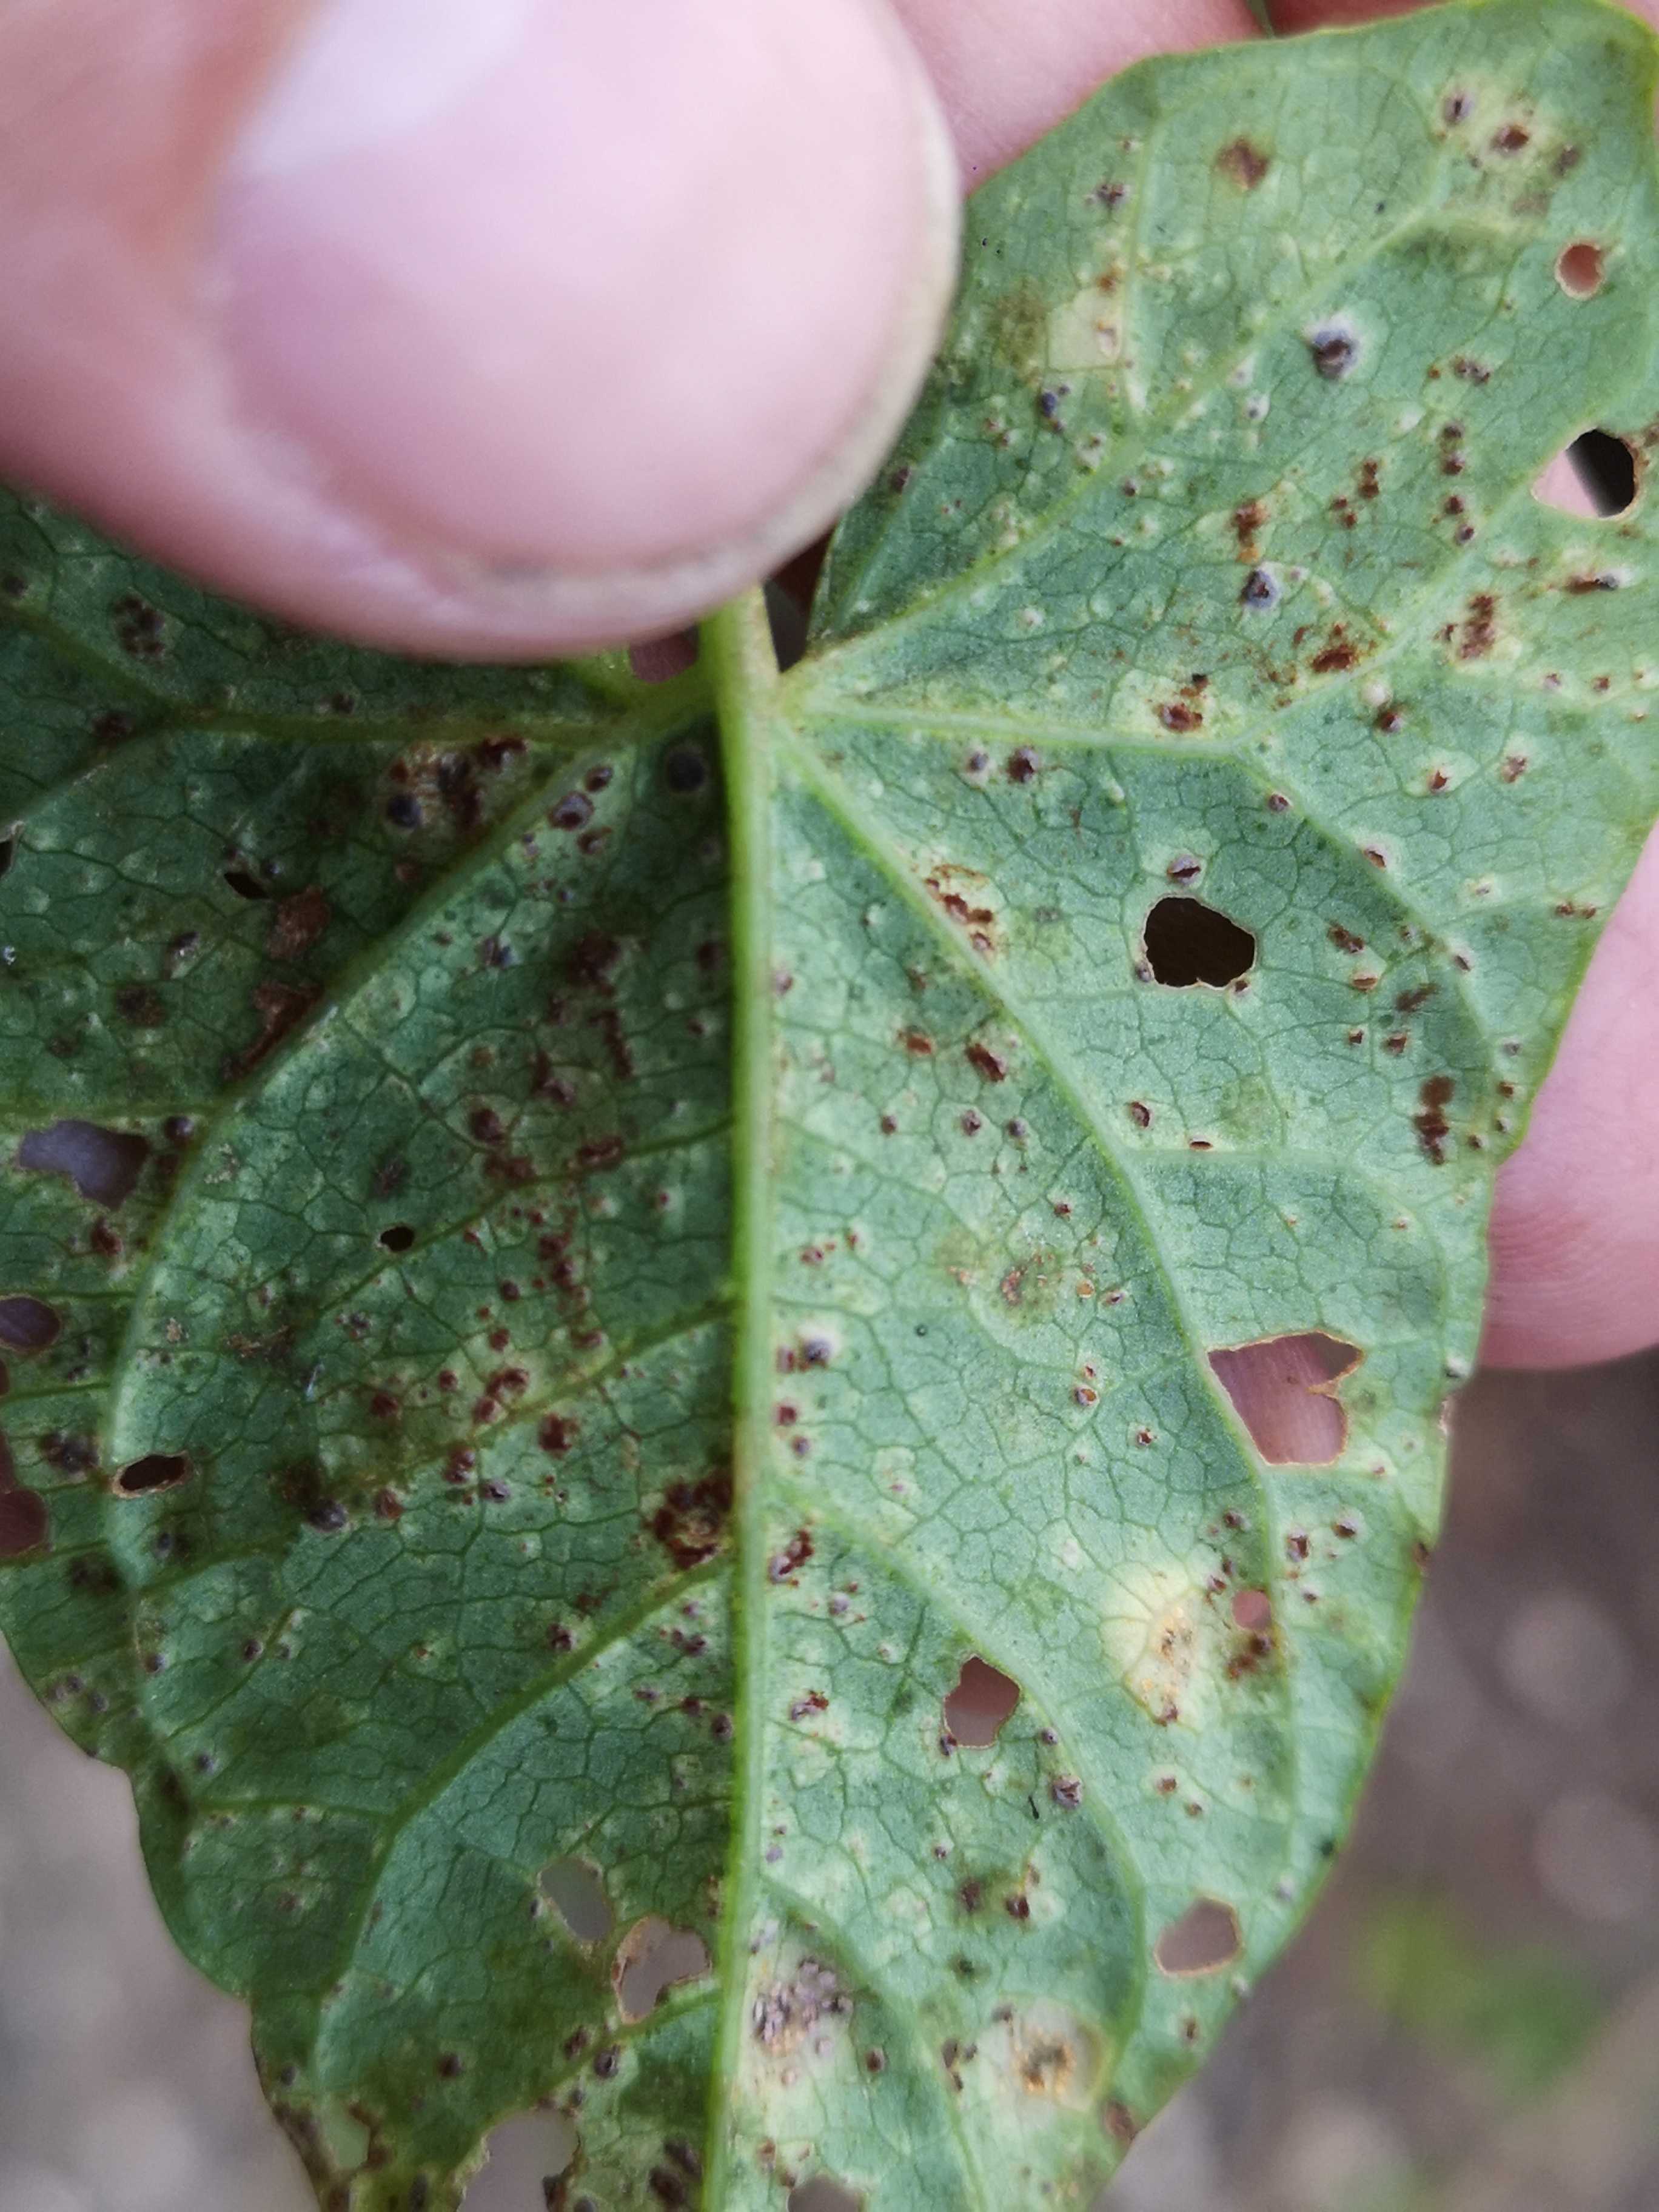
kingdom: Fungi
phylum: Basidiomycota
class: Pucciniomycetes
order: Pucciniales
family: Pucciniaceae
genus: Puccinia
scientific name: Puccinia convolvuli
